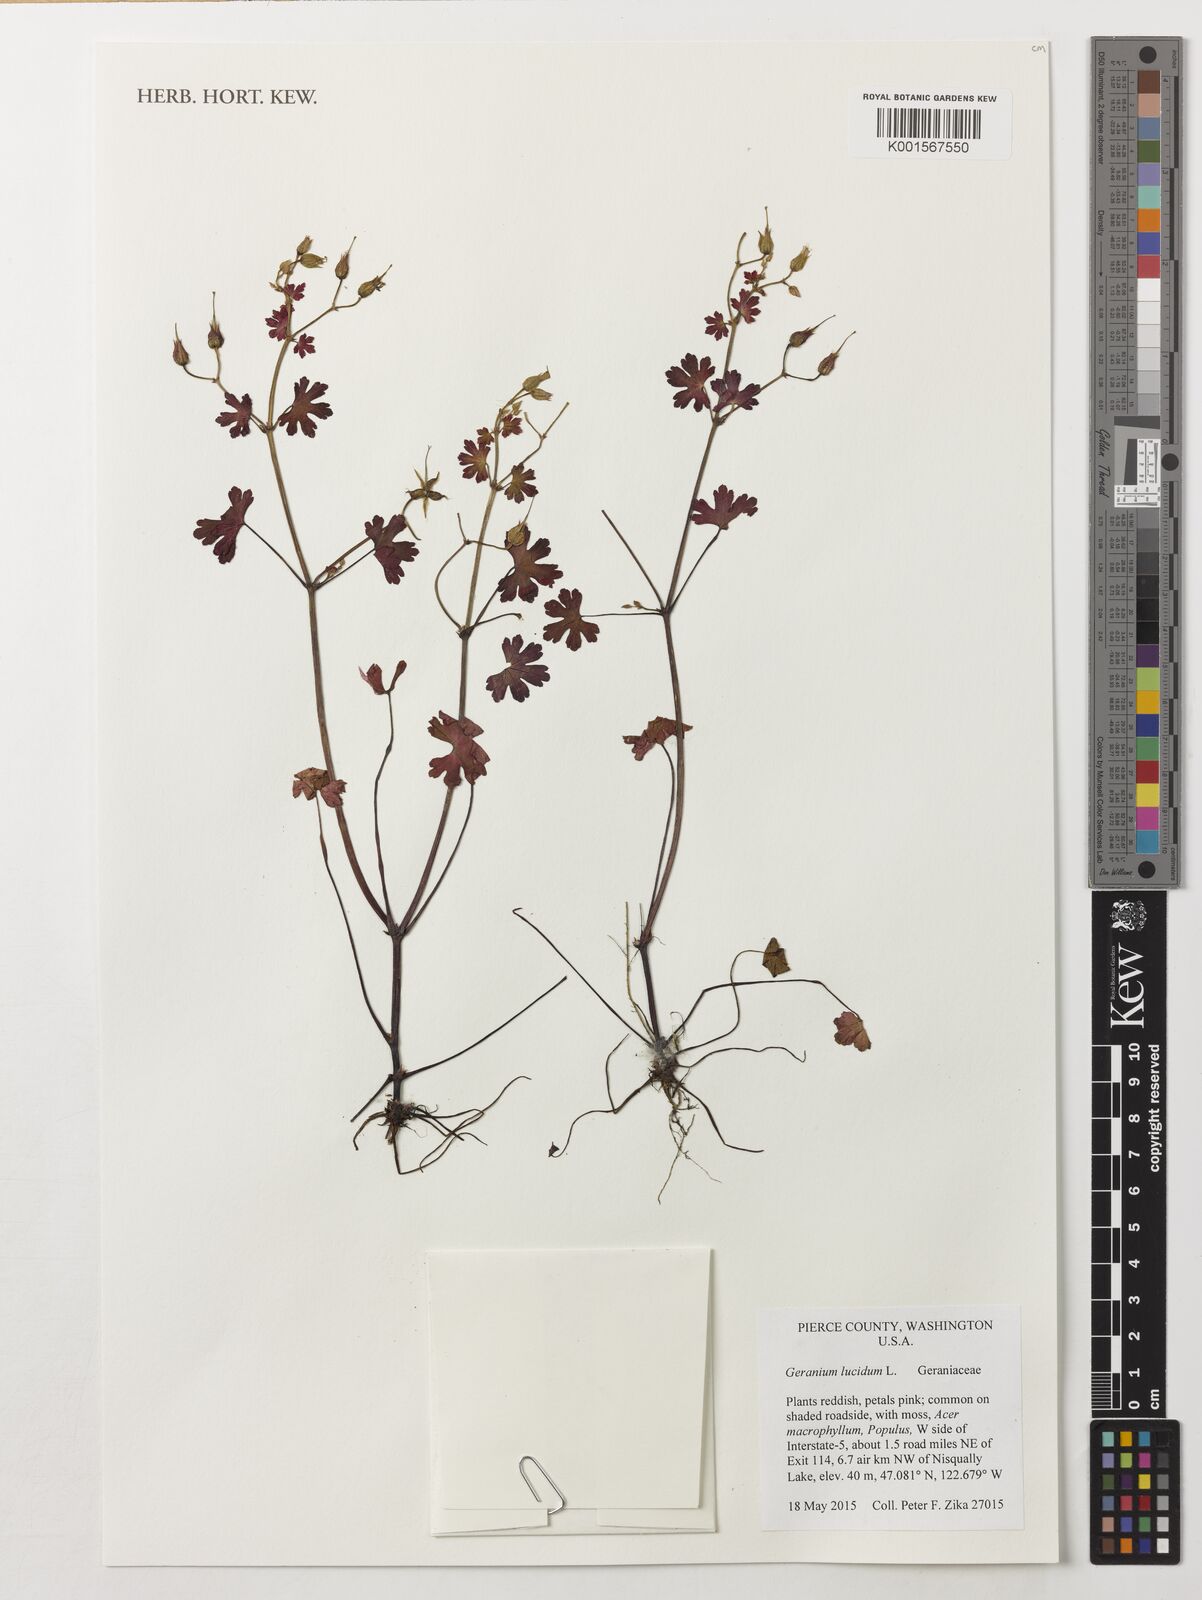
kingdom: Plantae
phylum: Tracheophyta
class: Magnoliopsida
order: Geraniales
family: Geraniaceae
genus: Geranium
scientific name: Geranium lucidum
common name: Shining crane's-bill
